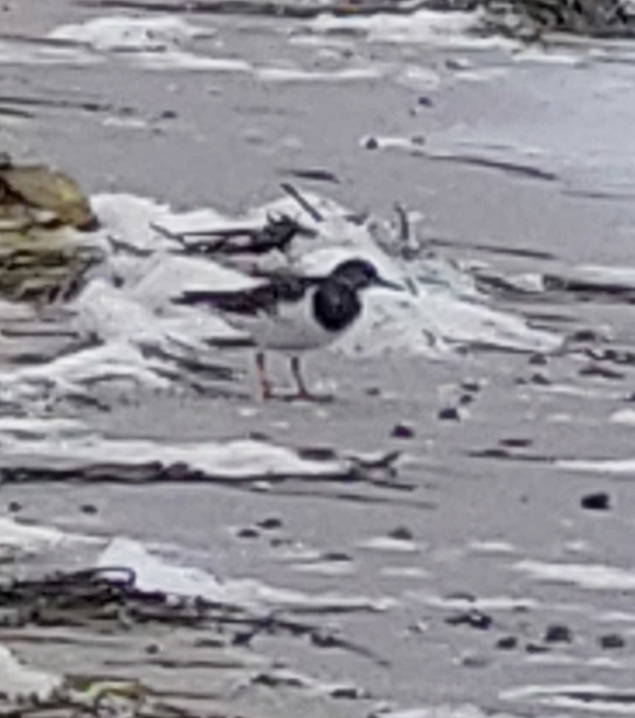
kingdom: Animalia
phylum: Chordata
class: Aves
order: Charadriiformes
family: Scolopacidae
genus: Arenaria
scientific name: Arenaria interpres
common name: Stenvender
